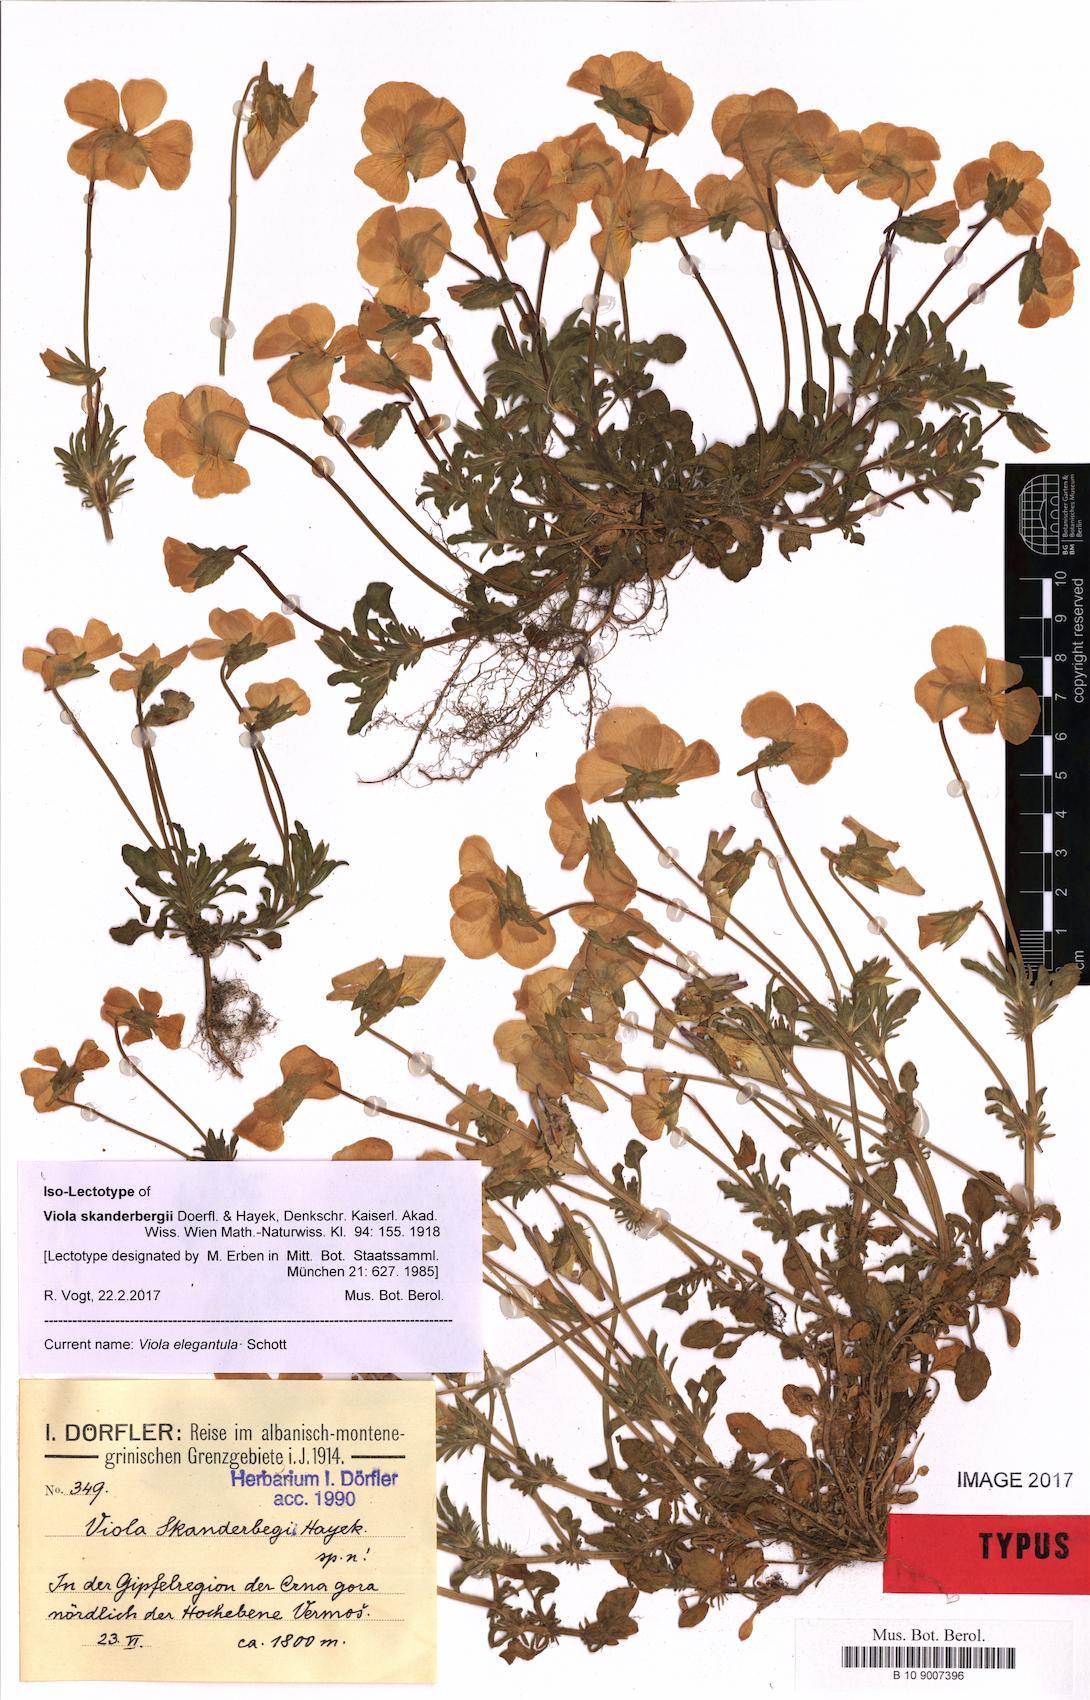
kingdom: Plantae
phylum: Tracheophyta
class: Magnoliopsida
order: Malpighiales
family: Violaceae
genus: Viola
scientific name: Viola elegantula
